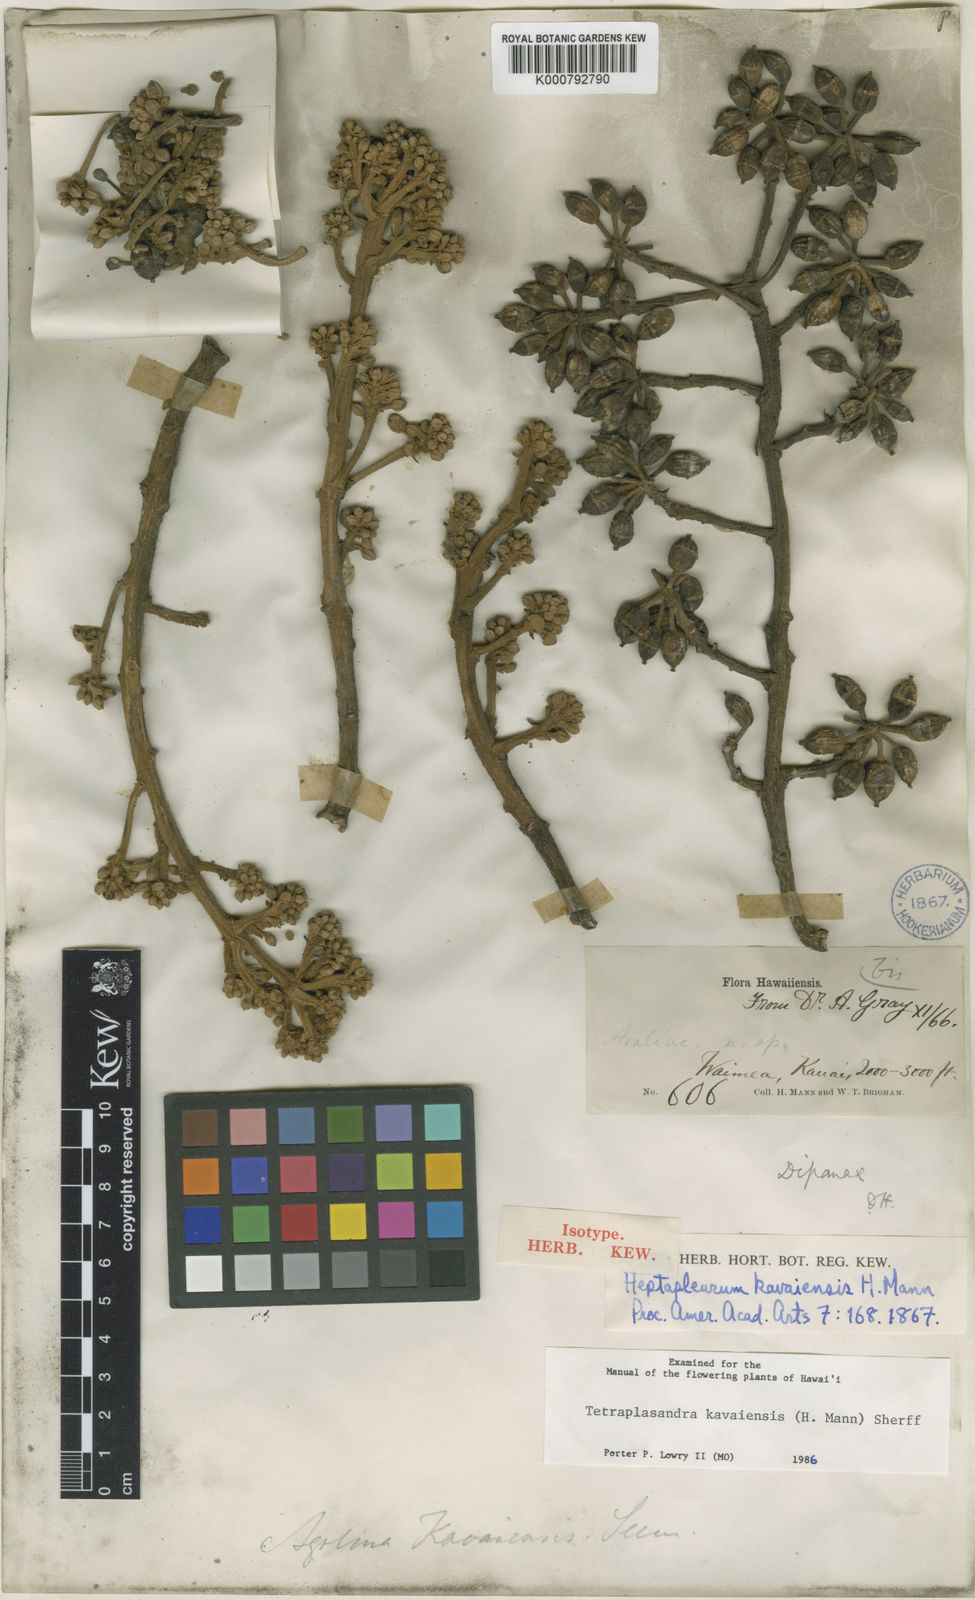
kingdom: Plantae
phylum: Tracheophyta
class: Magnoliopsida
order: Apiales
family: Araliaceae
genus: Polyscias
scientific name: Polyscias kavaiensis
